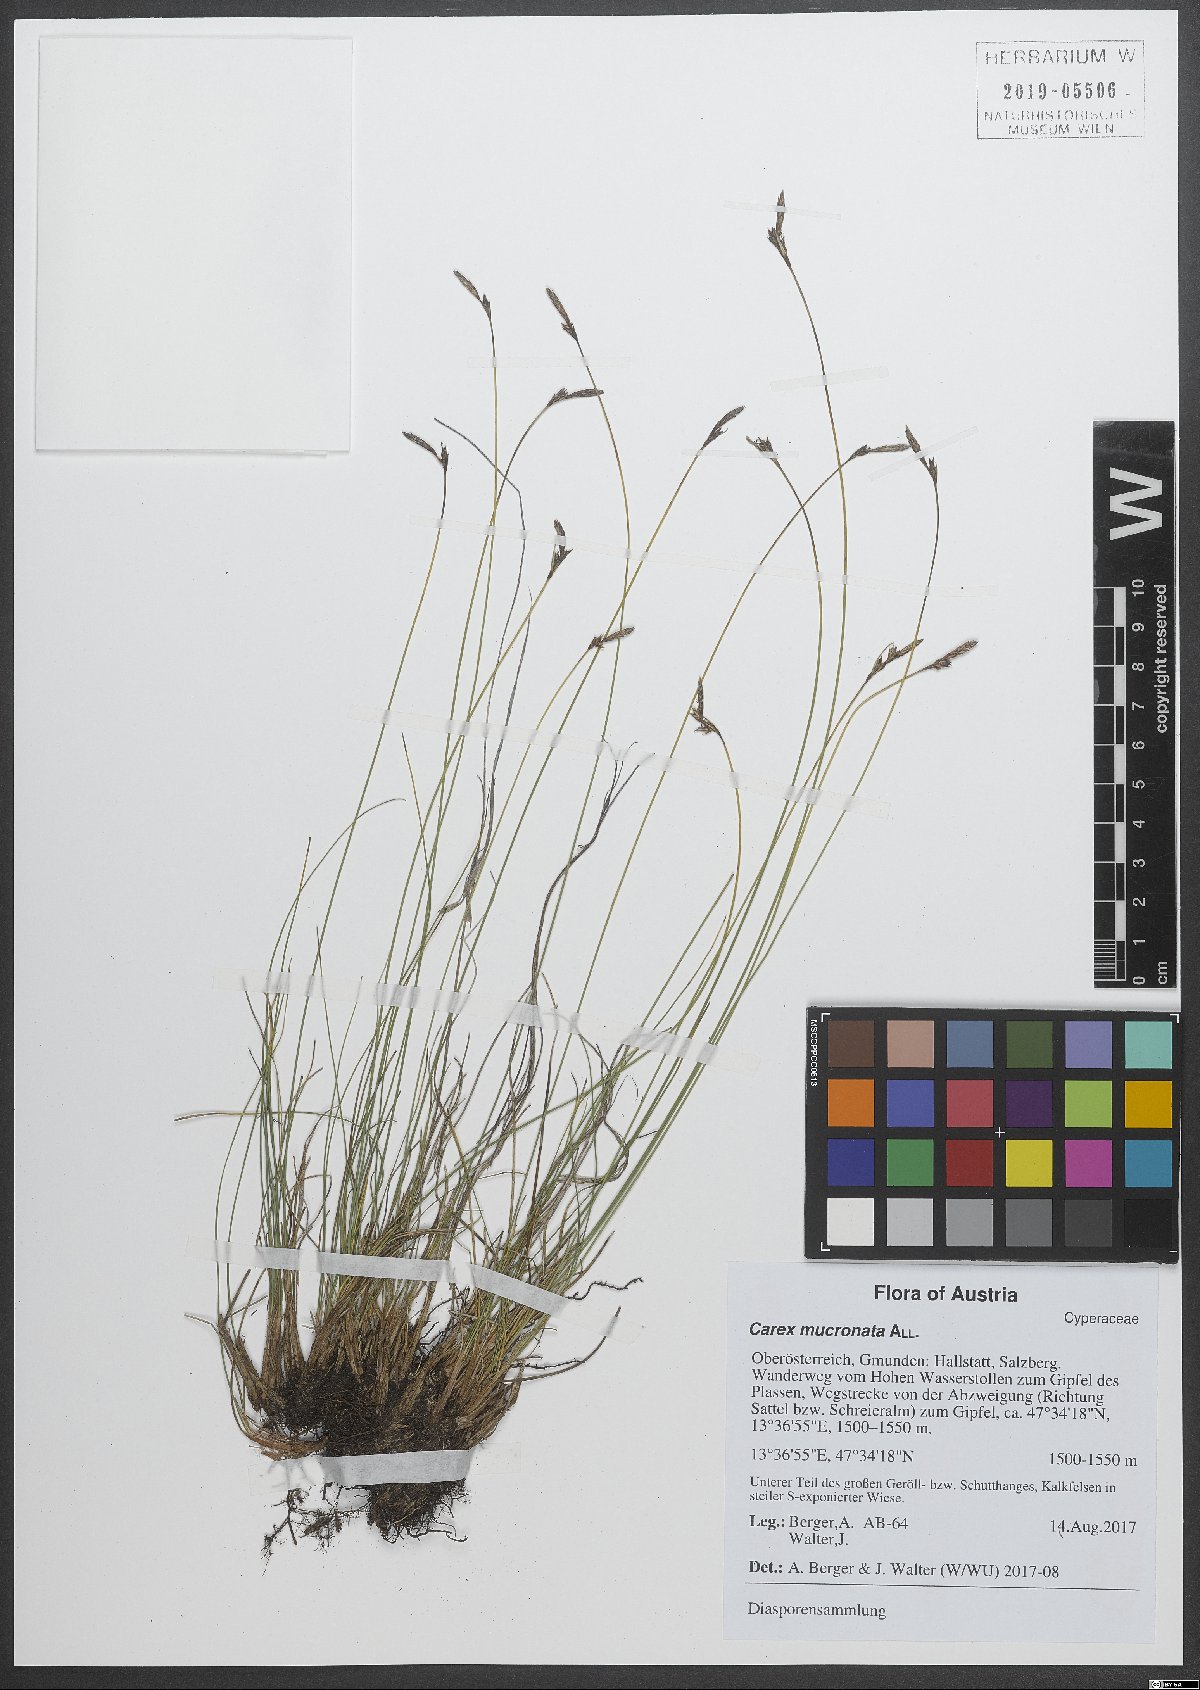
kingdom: Plantae
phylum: Tracheophyta
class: Liliopsida
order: Poales
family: Cyperaceae
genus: Carex
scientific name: Carex mucronata
